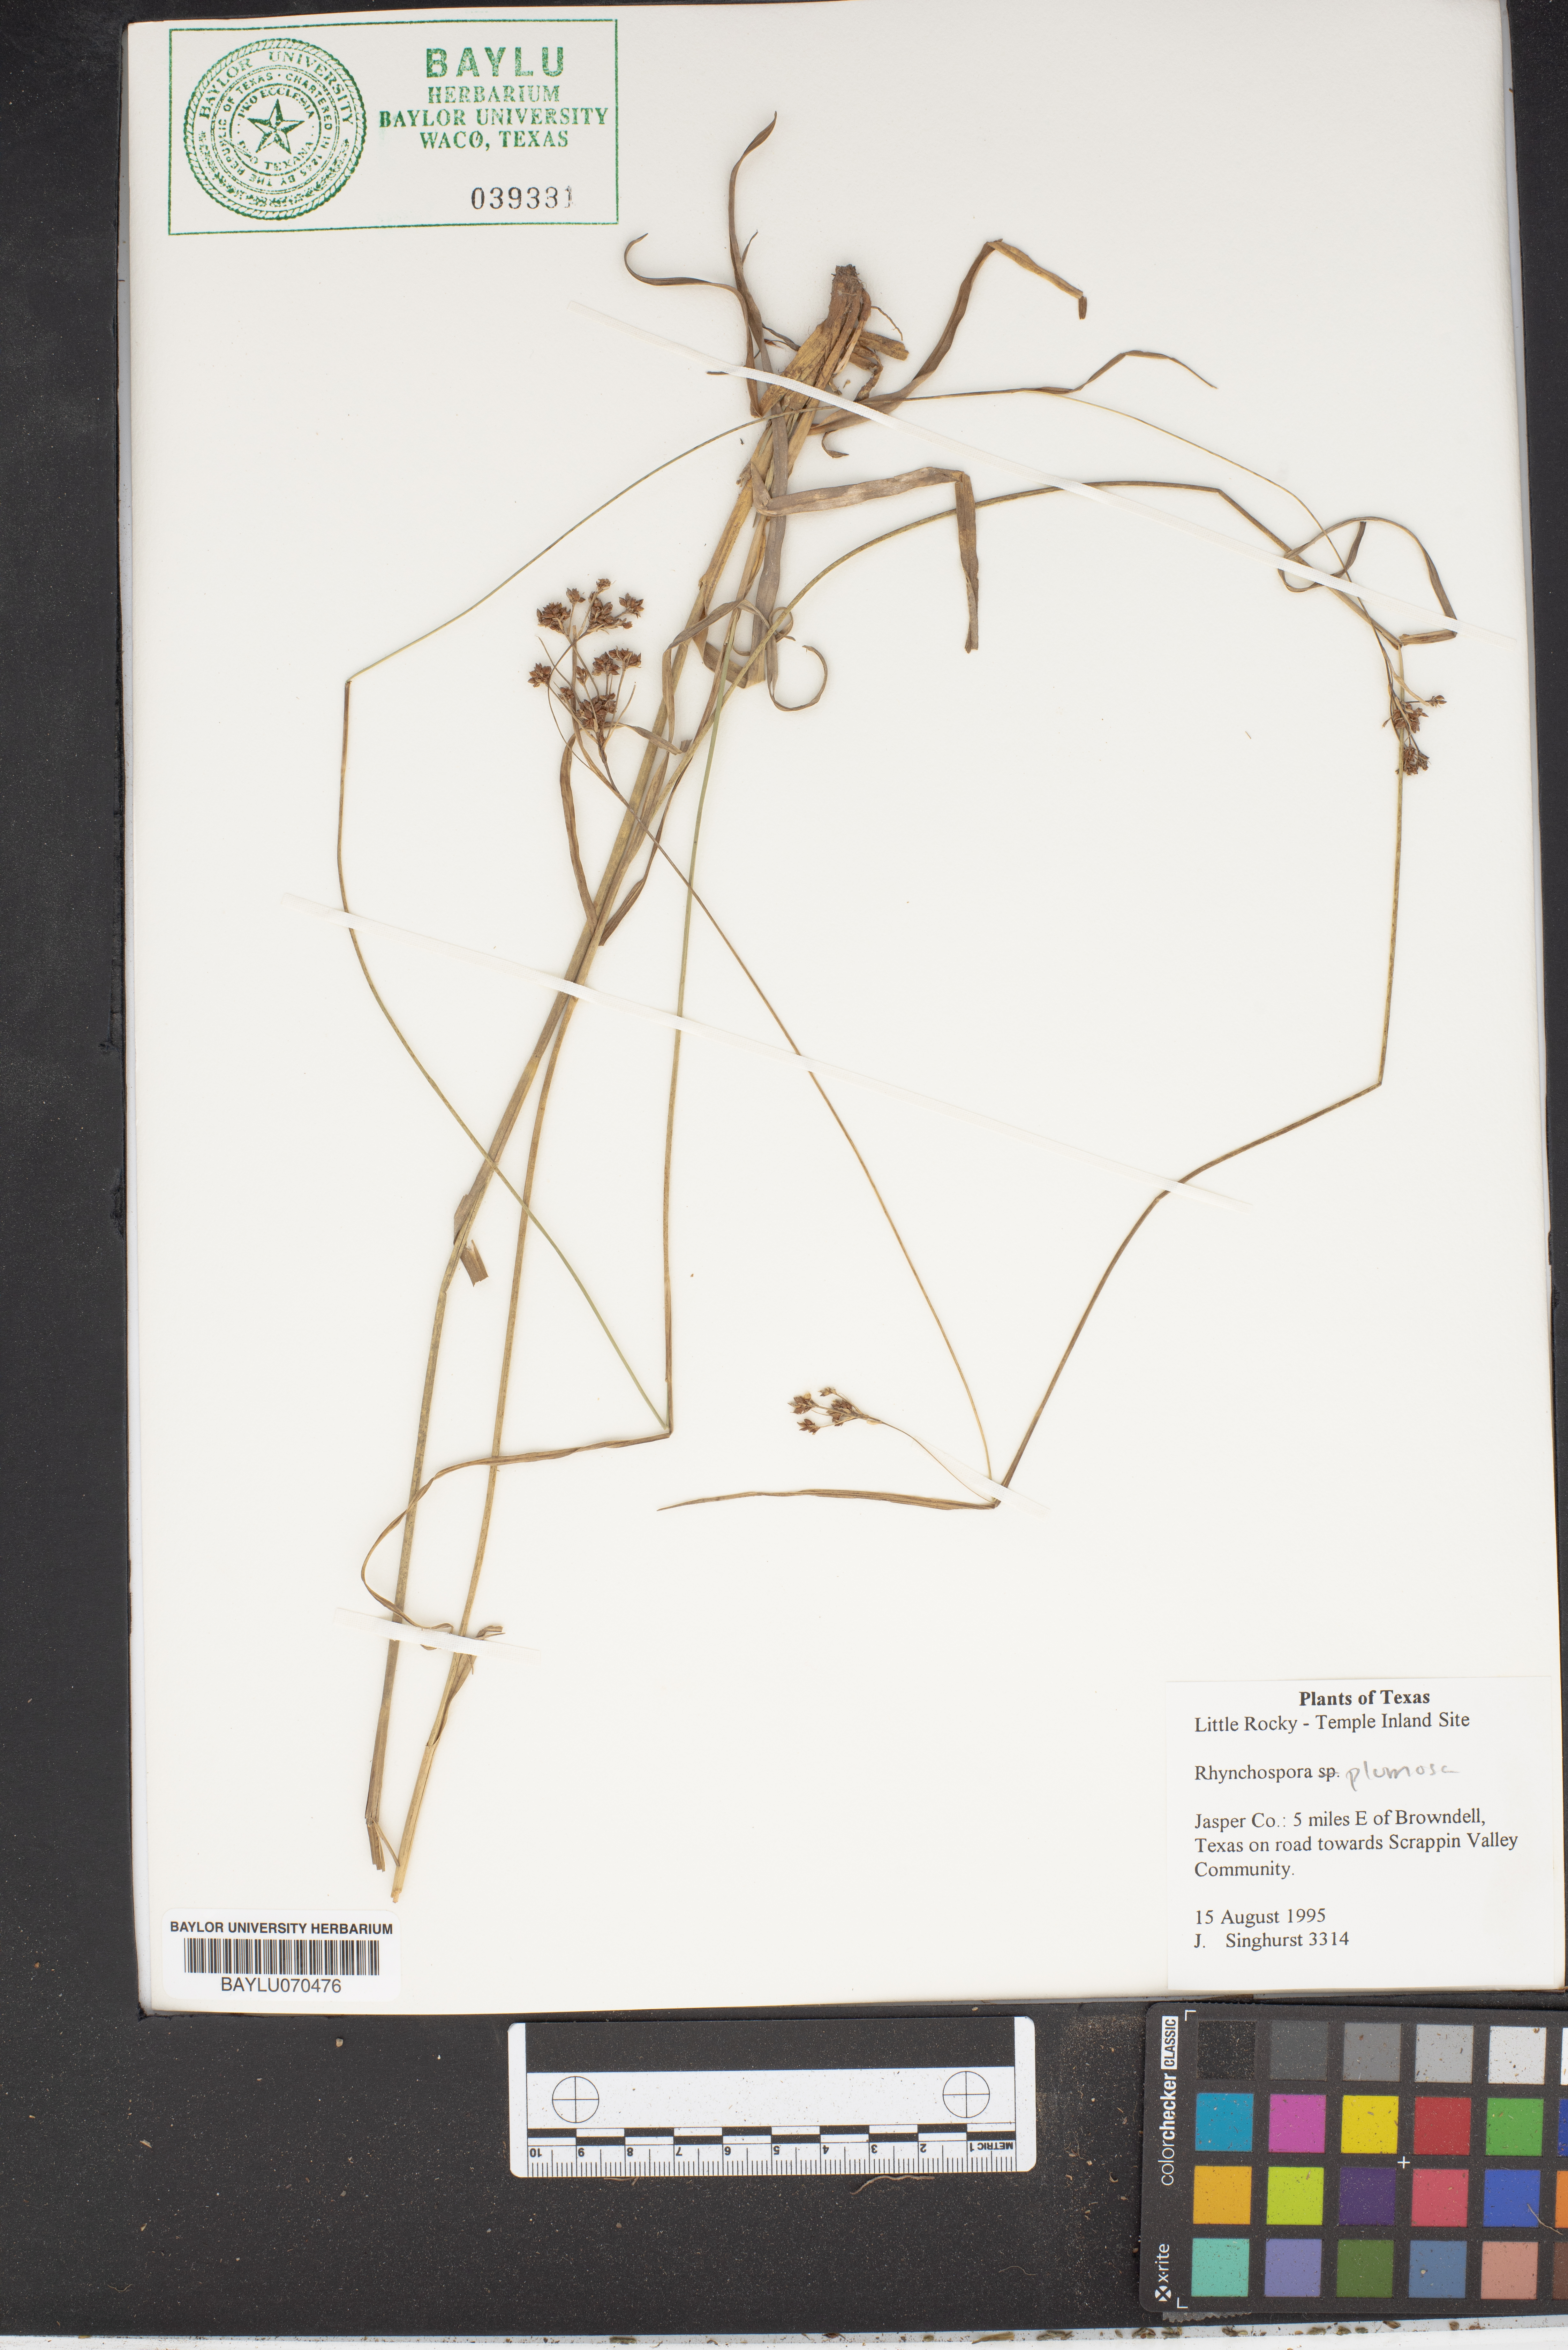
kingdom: Plantae
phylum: Tracheophyta
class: Liliopsida
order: Poales
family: Cyperaceae
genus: Rhynchospora
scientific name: Rhynchospora plumosa
